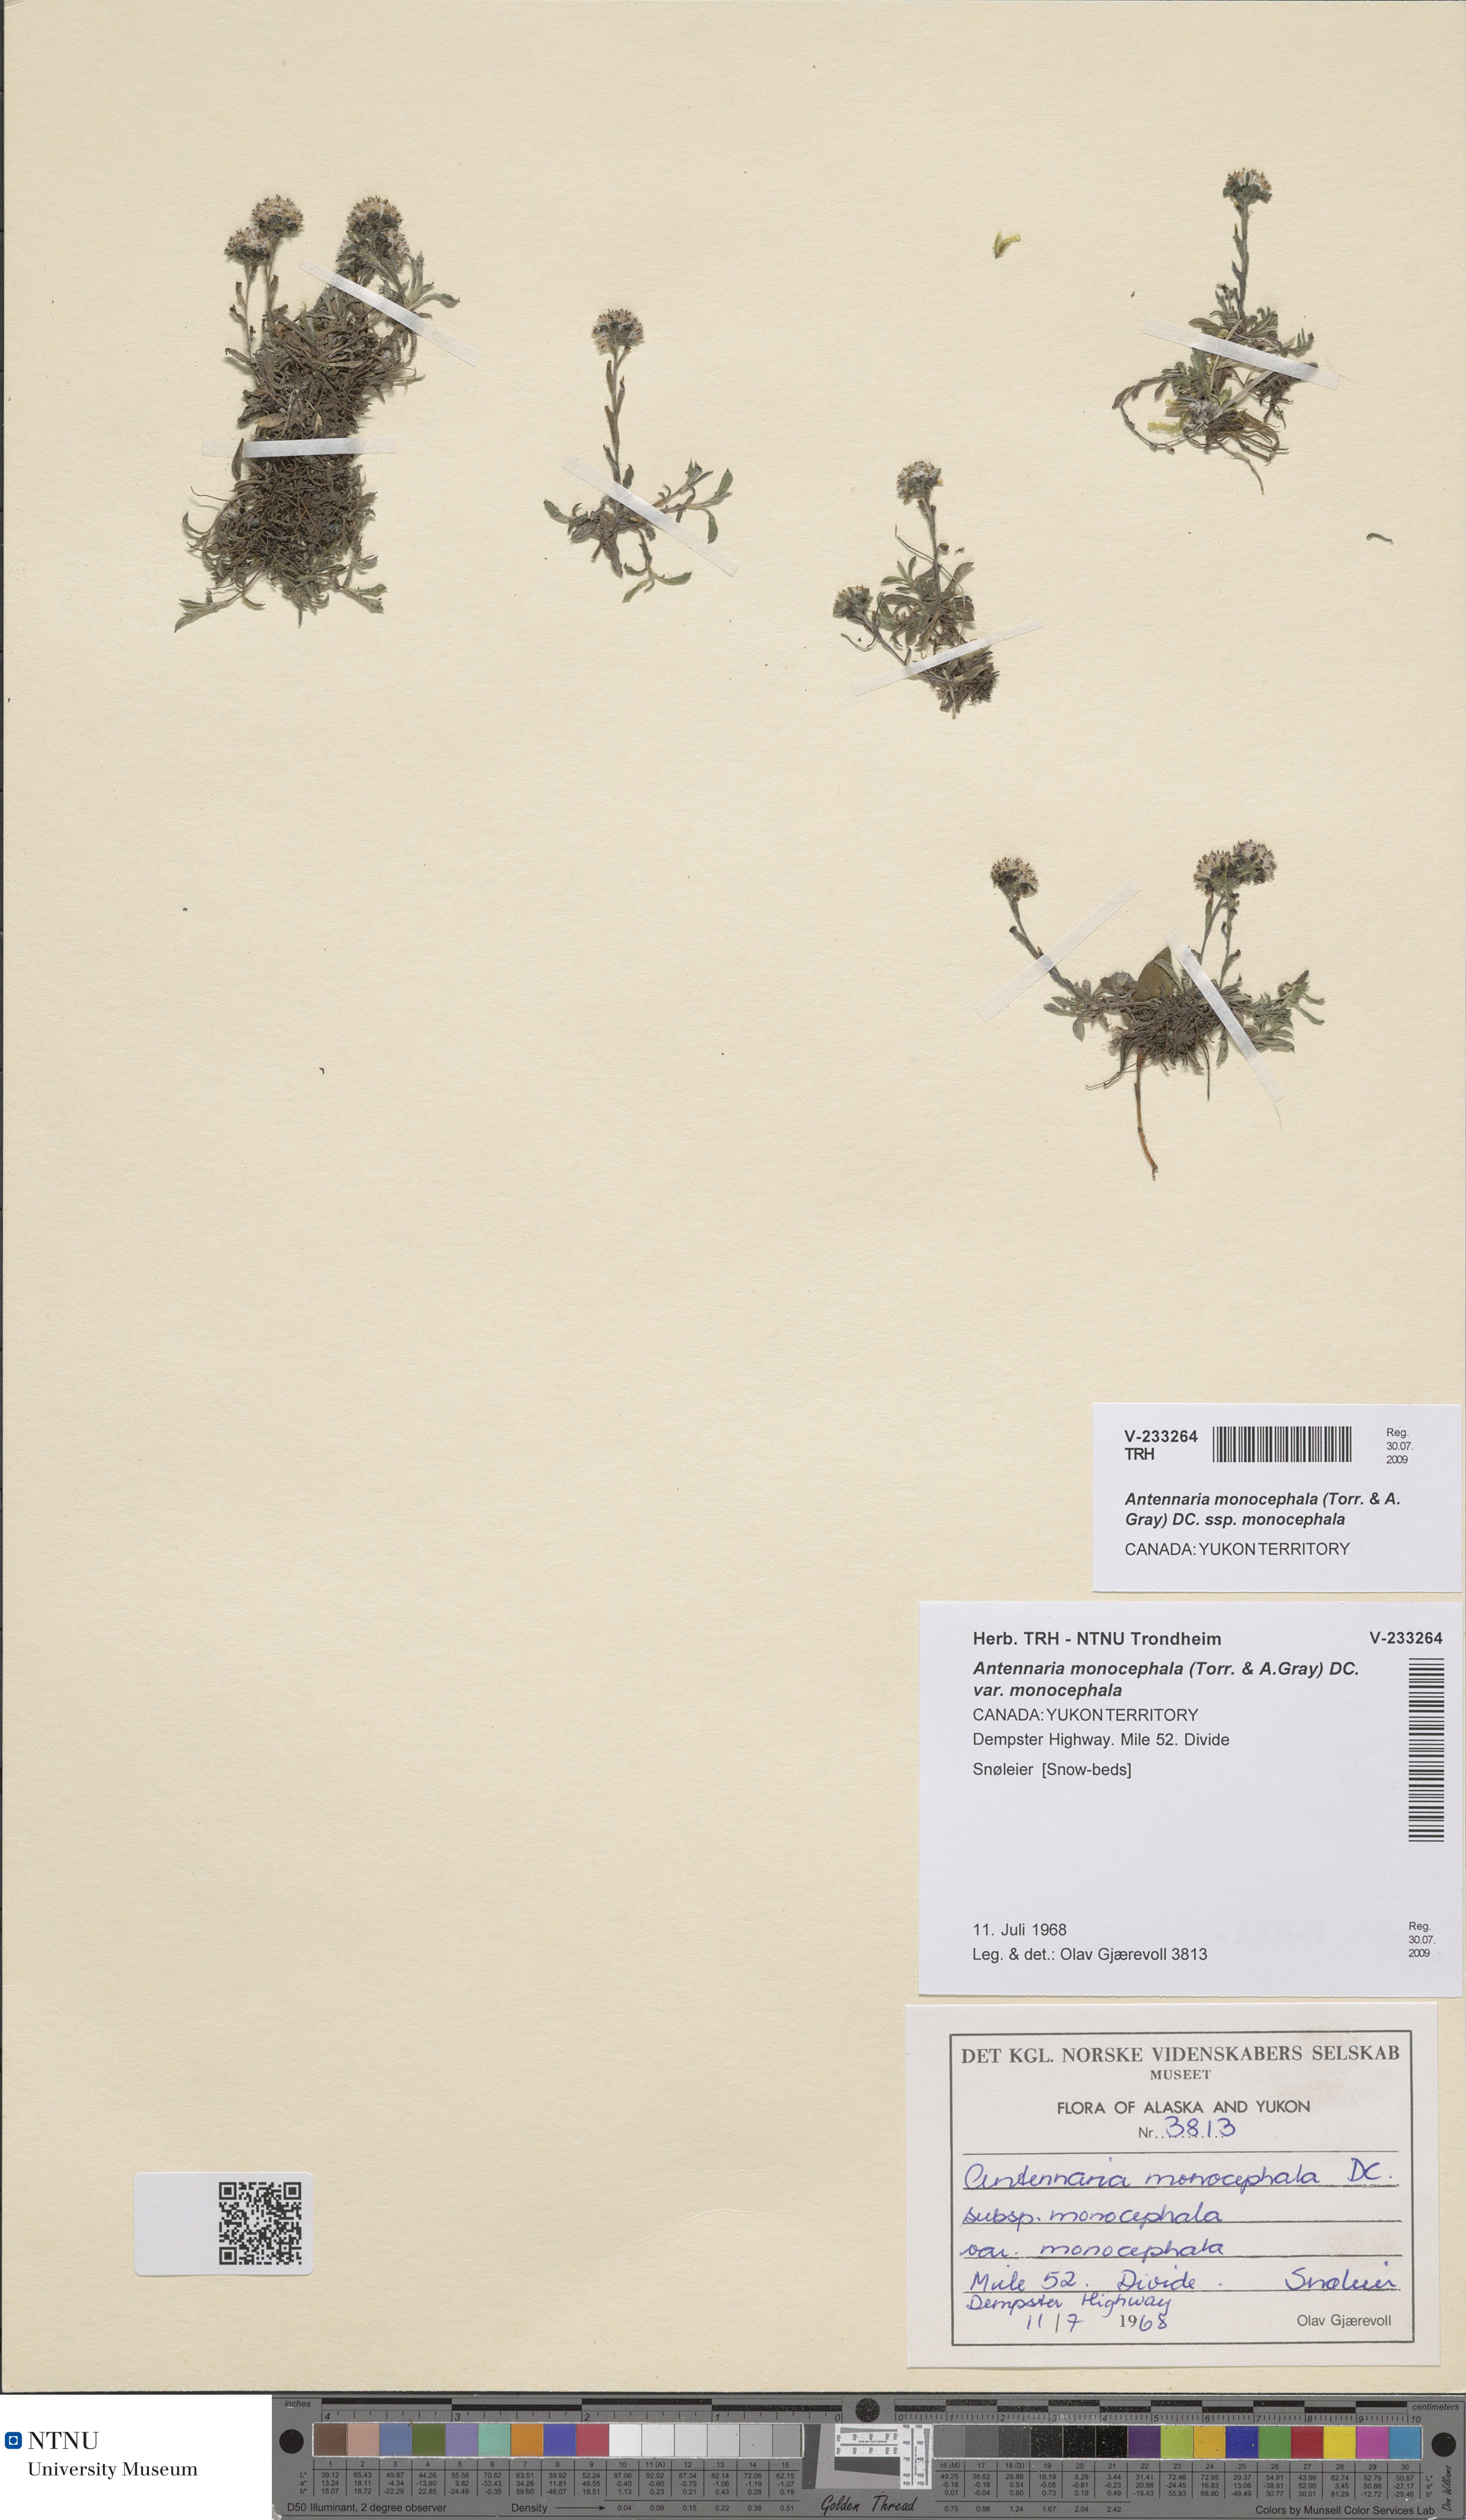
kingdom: Plantae
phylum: Tracheophyta
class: Magnoliopsida
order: Asterales
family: Asteraceae
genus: Antennaria
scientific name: Antennaria monocephala
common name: Pygmy pussytoes
